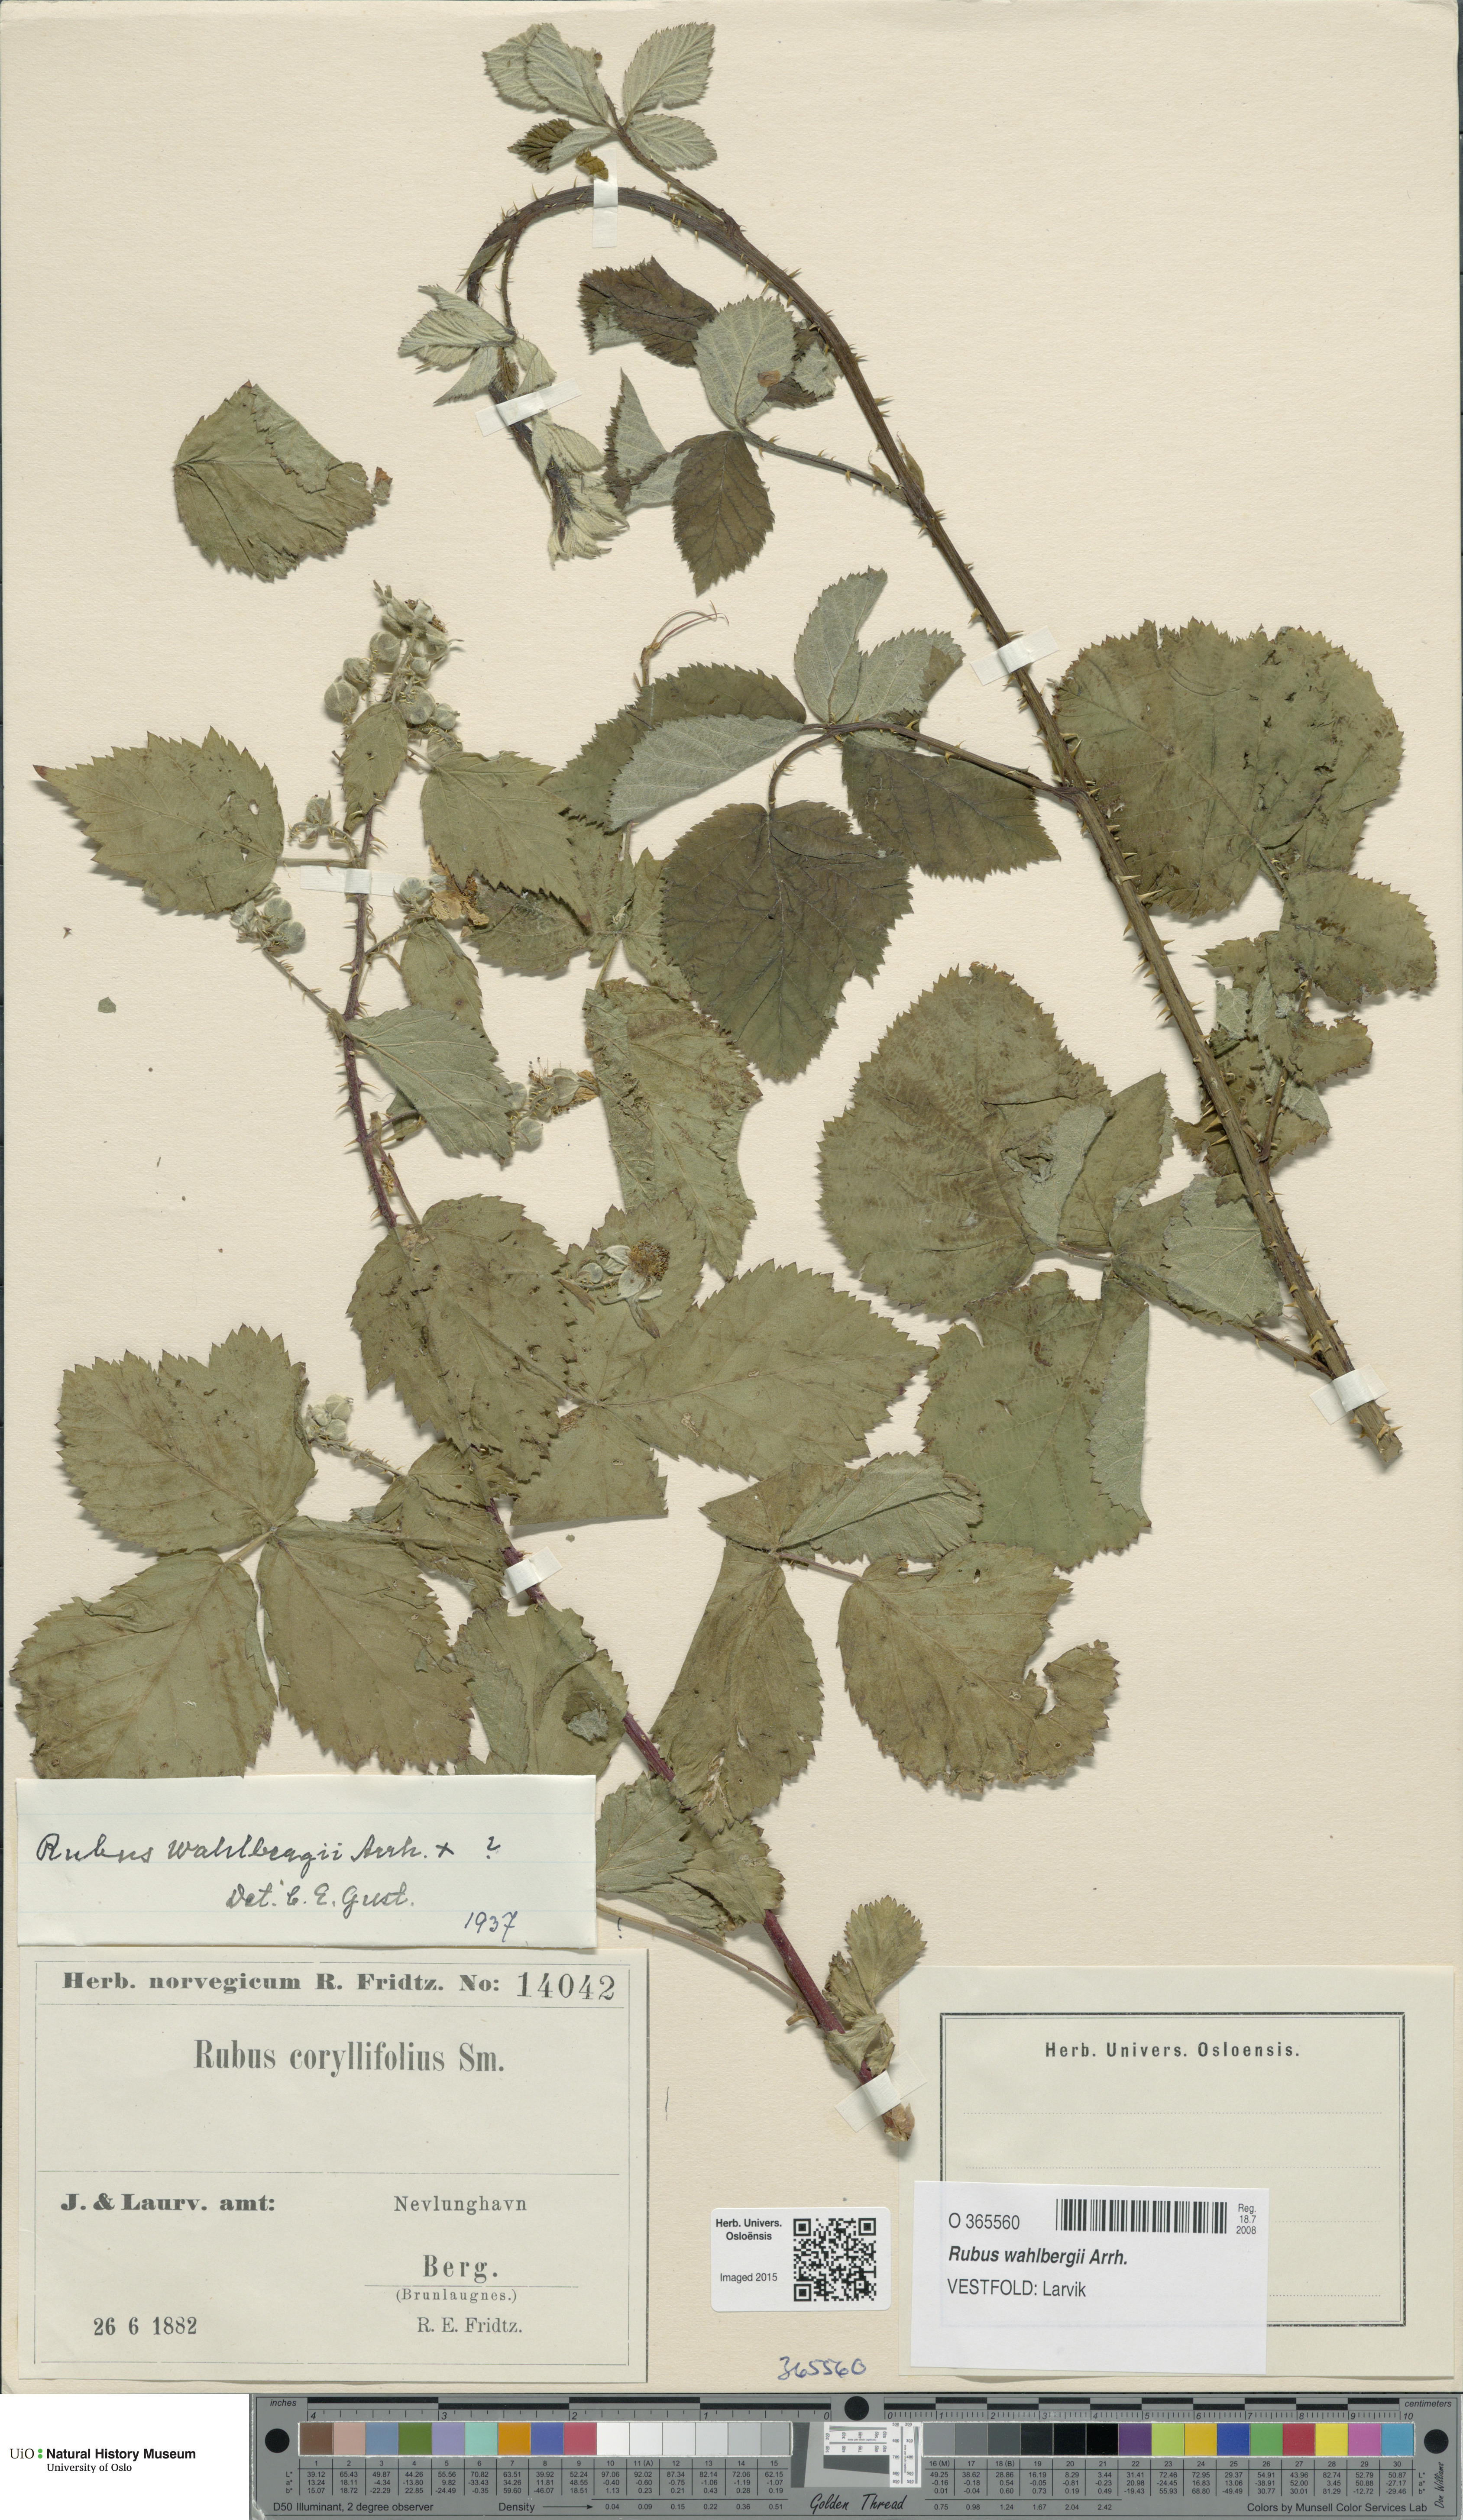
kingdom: Plantae
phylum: Tracheophyta
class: Magnoliopsida
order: Rosales
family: Rosaceae
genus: Rubus
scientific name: Rubus wahlbergii
